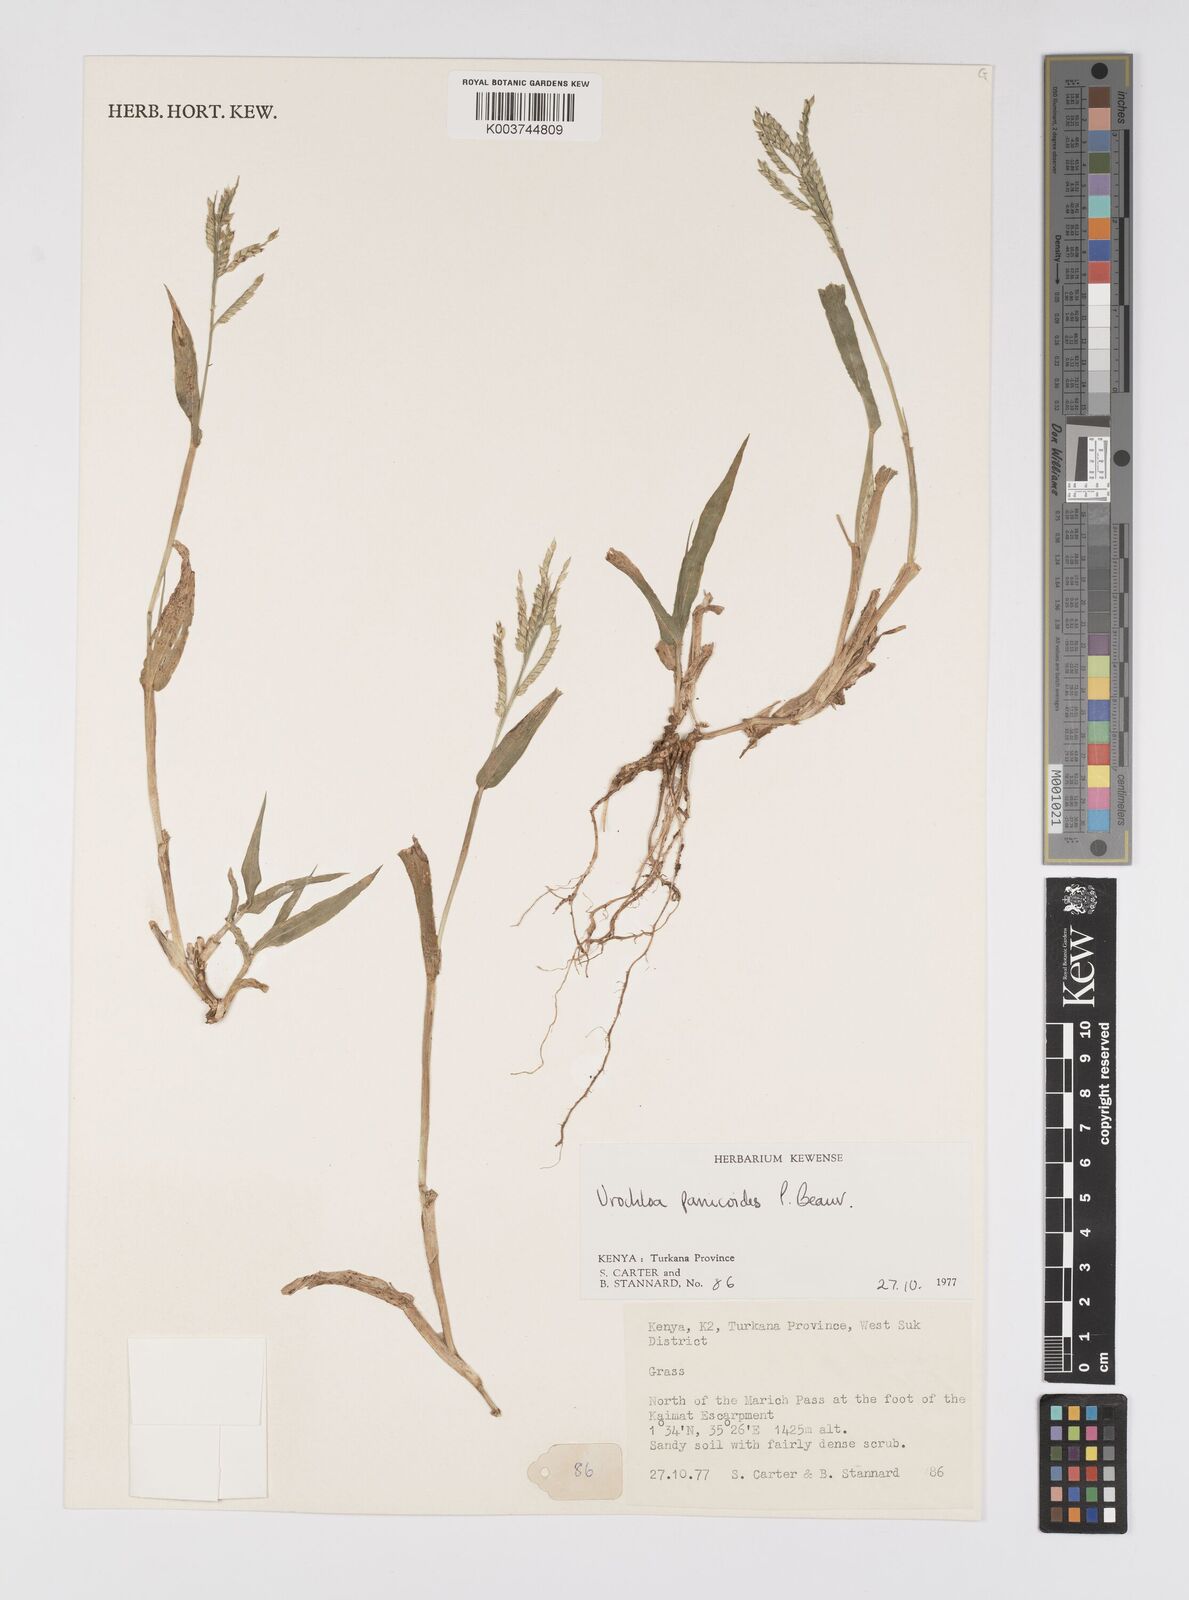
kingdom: Plantae
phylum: Tracheophyta
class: Liliopsida
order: Poales
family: Poaceae
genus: Urochloa
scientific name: Urochloa panicoides
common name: Sharp-flowered signal-grass
